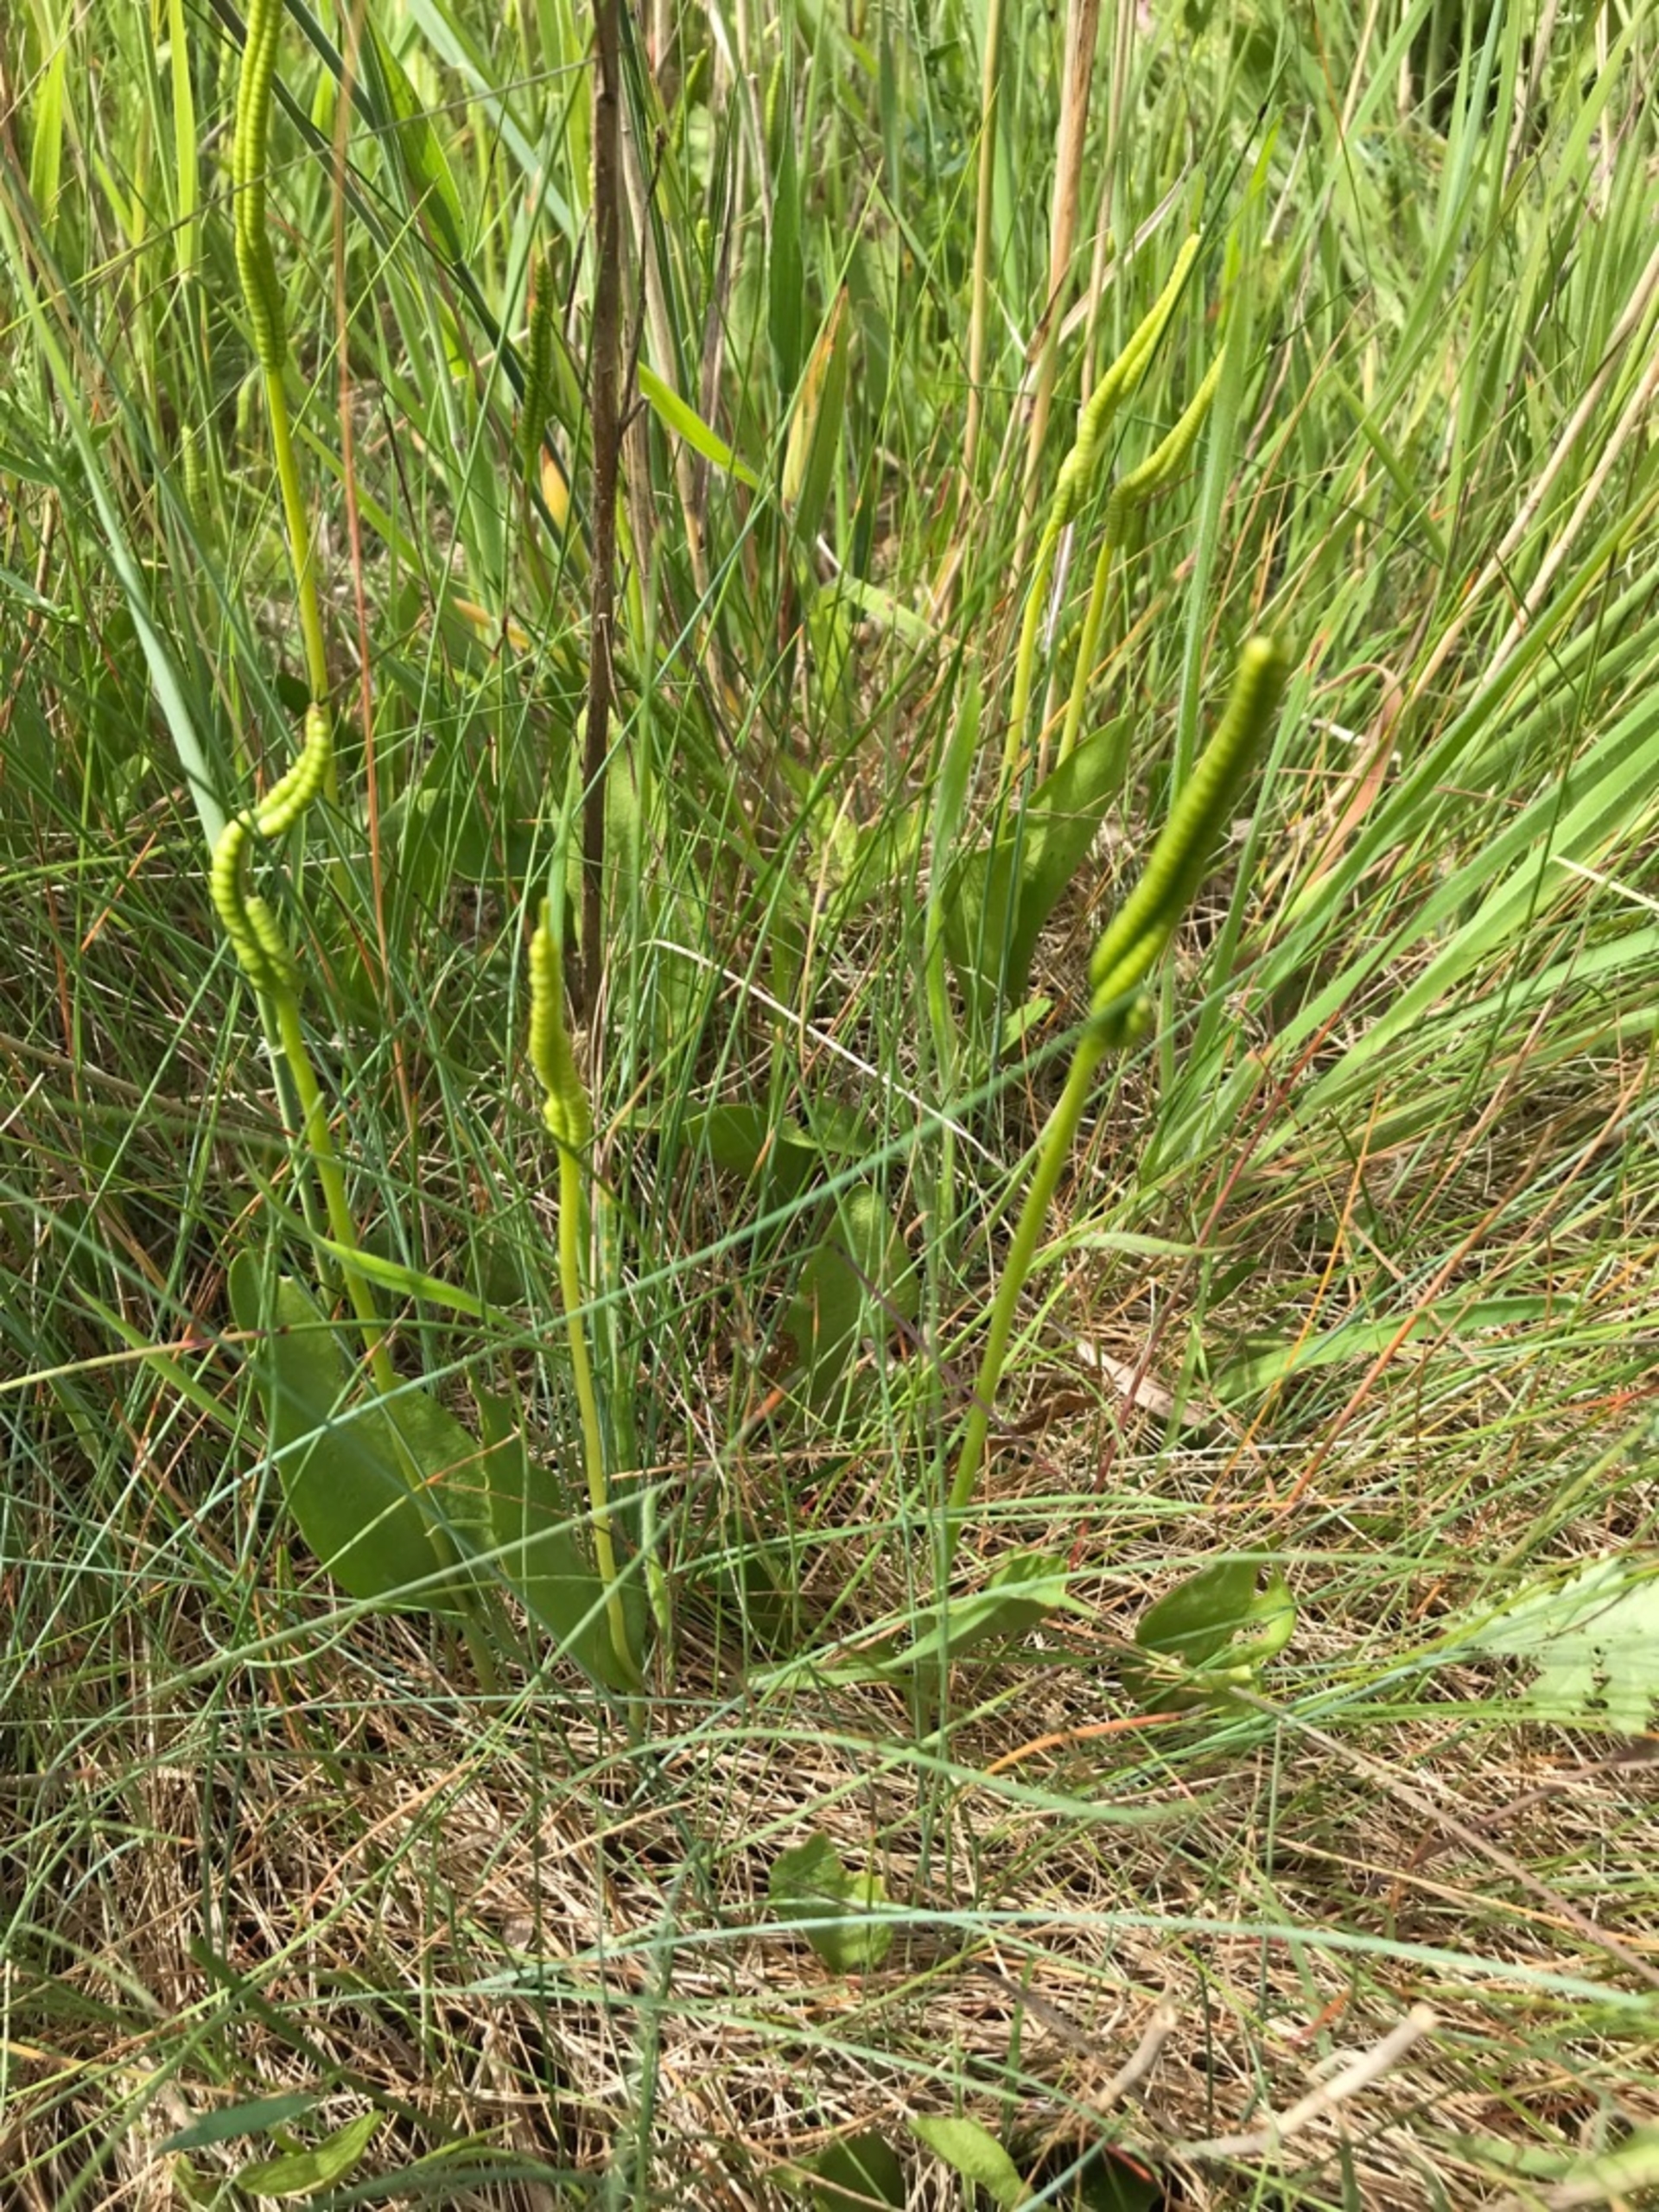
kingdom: Plantae
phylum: Tracheophyta
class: Polypodiopsida
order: Ophioglossales
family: Ophioglossaceae
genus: Ophioglossum
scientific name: Ophioglossum vulgatum
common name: Slangetunge
